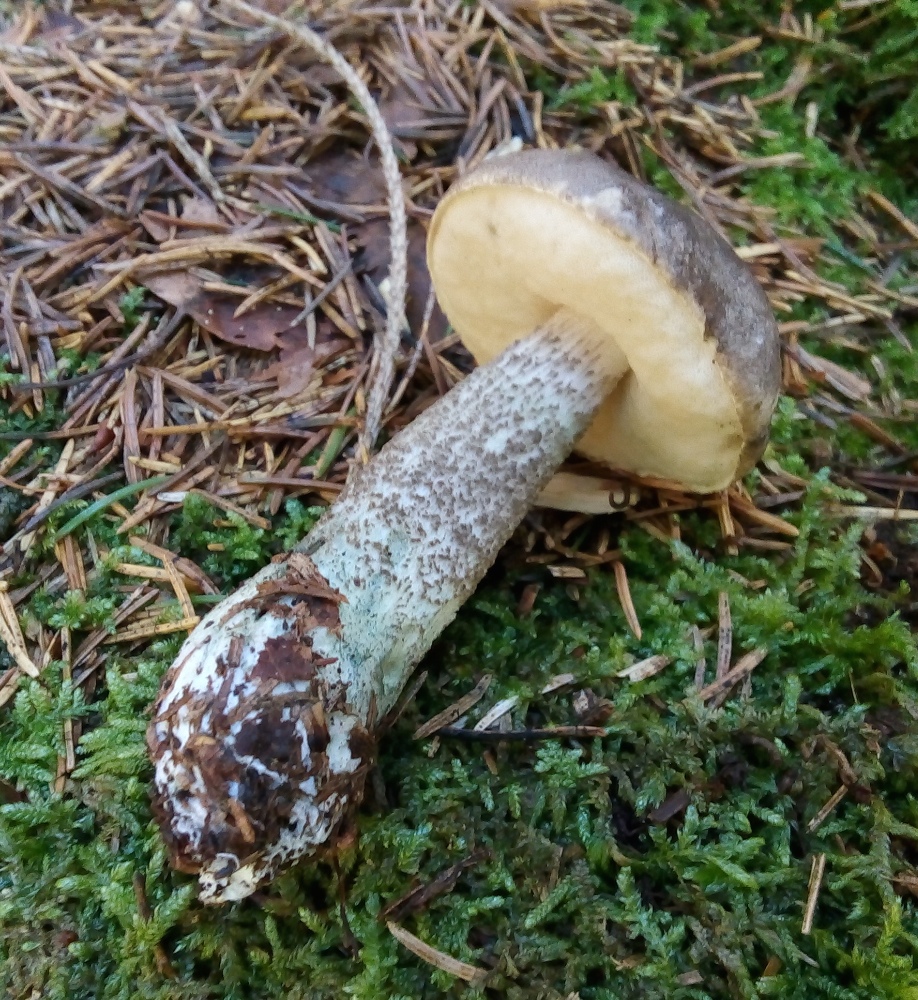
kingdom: Fungi
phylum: Basidiomycota
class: Agaricomycetes
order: Boletales
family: Boletaceae
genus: Leccinum
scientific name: Leccinum variicolor
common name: flammet skælrørhat
